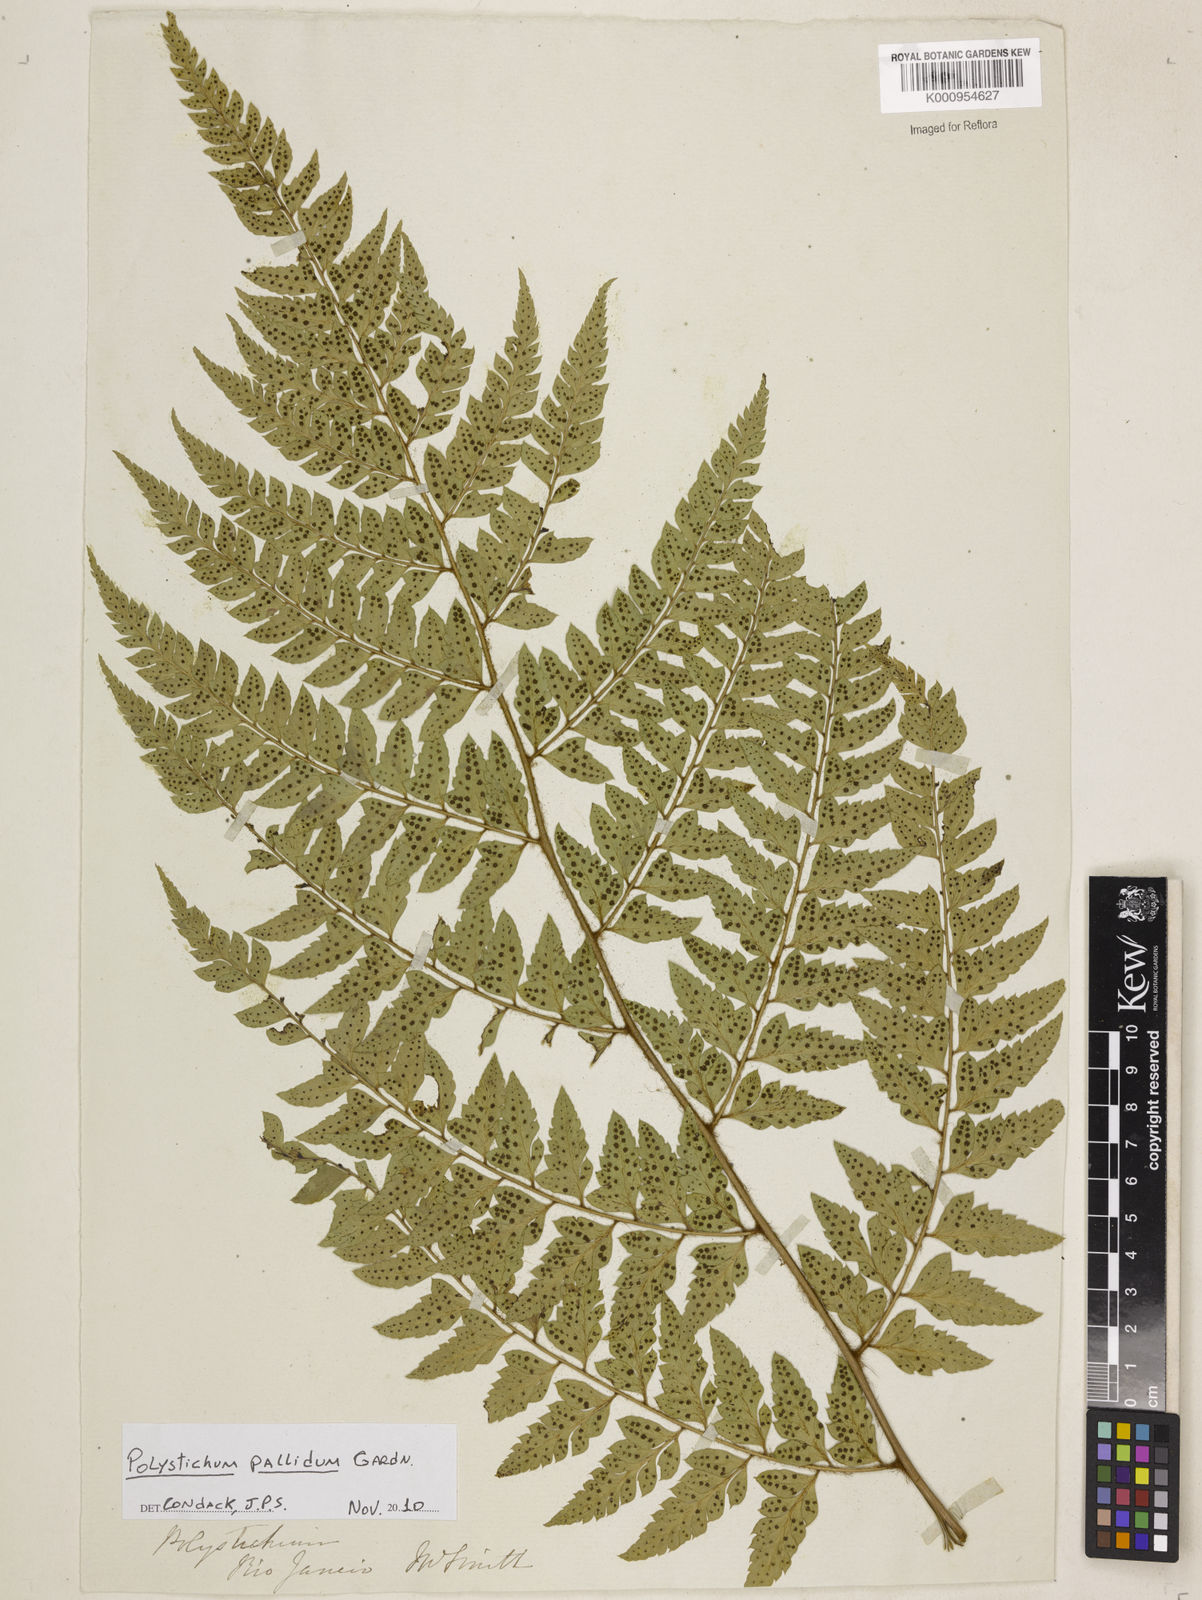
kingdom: Plantae
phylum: Tracheophyta
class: Polypodiopsida
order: Polypodiales
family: Dryopteridaceae
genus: Polystichum
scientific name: Polystichum
